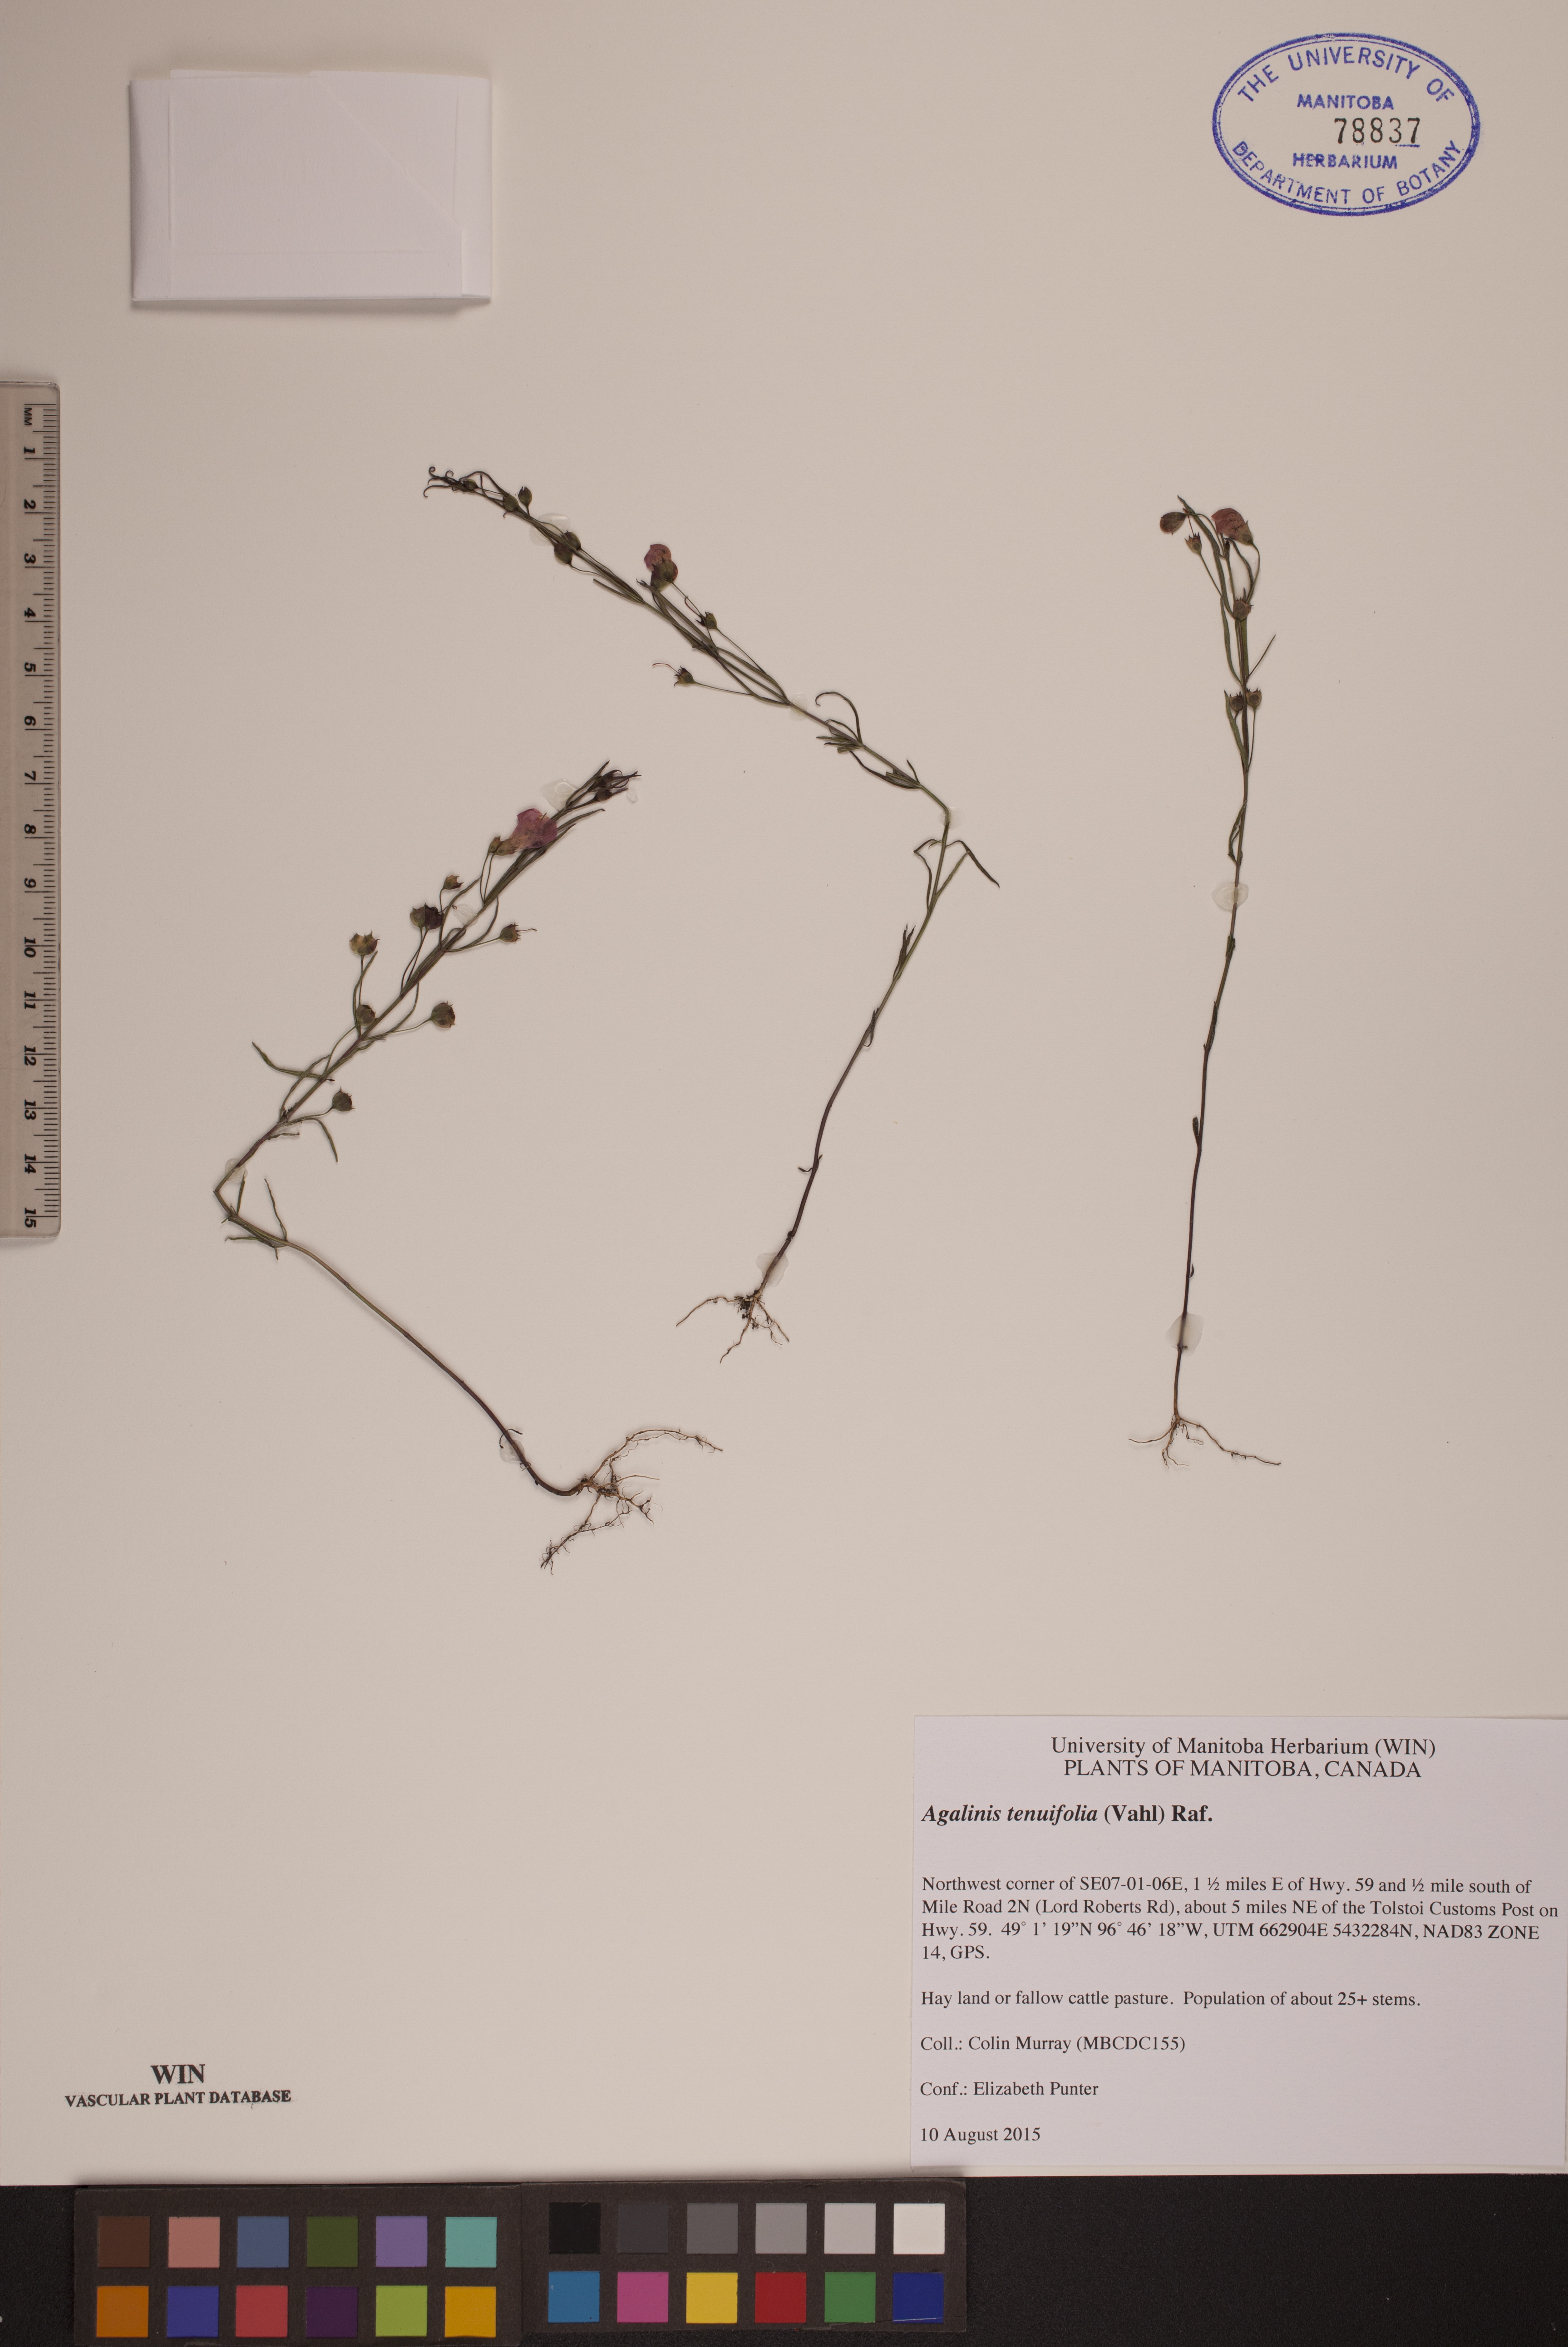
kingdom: Plantae
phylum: Tracheophyta
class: Magnoliopsida
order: Lamiales
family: Orobanchaceae
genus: Agalinis
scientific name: Agalinis tenuifolia
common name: Slender agalinis
